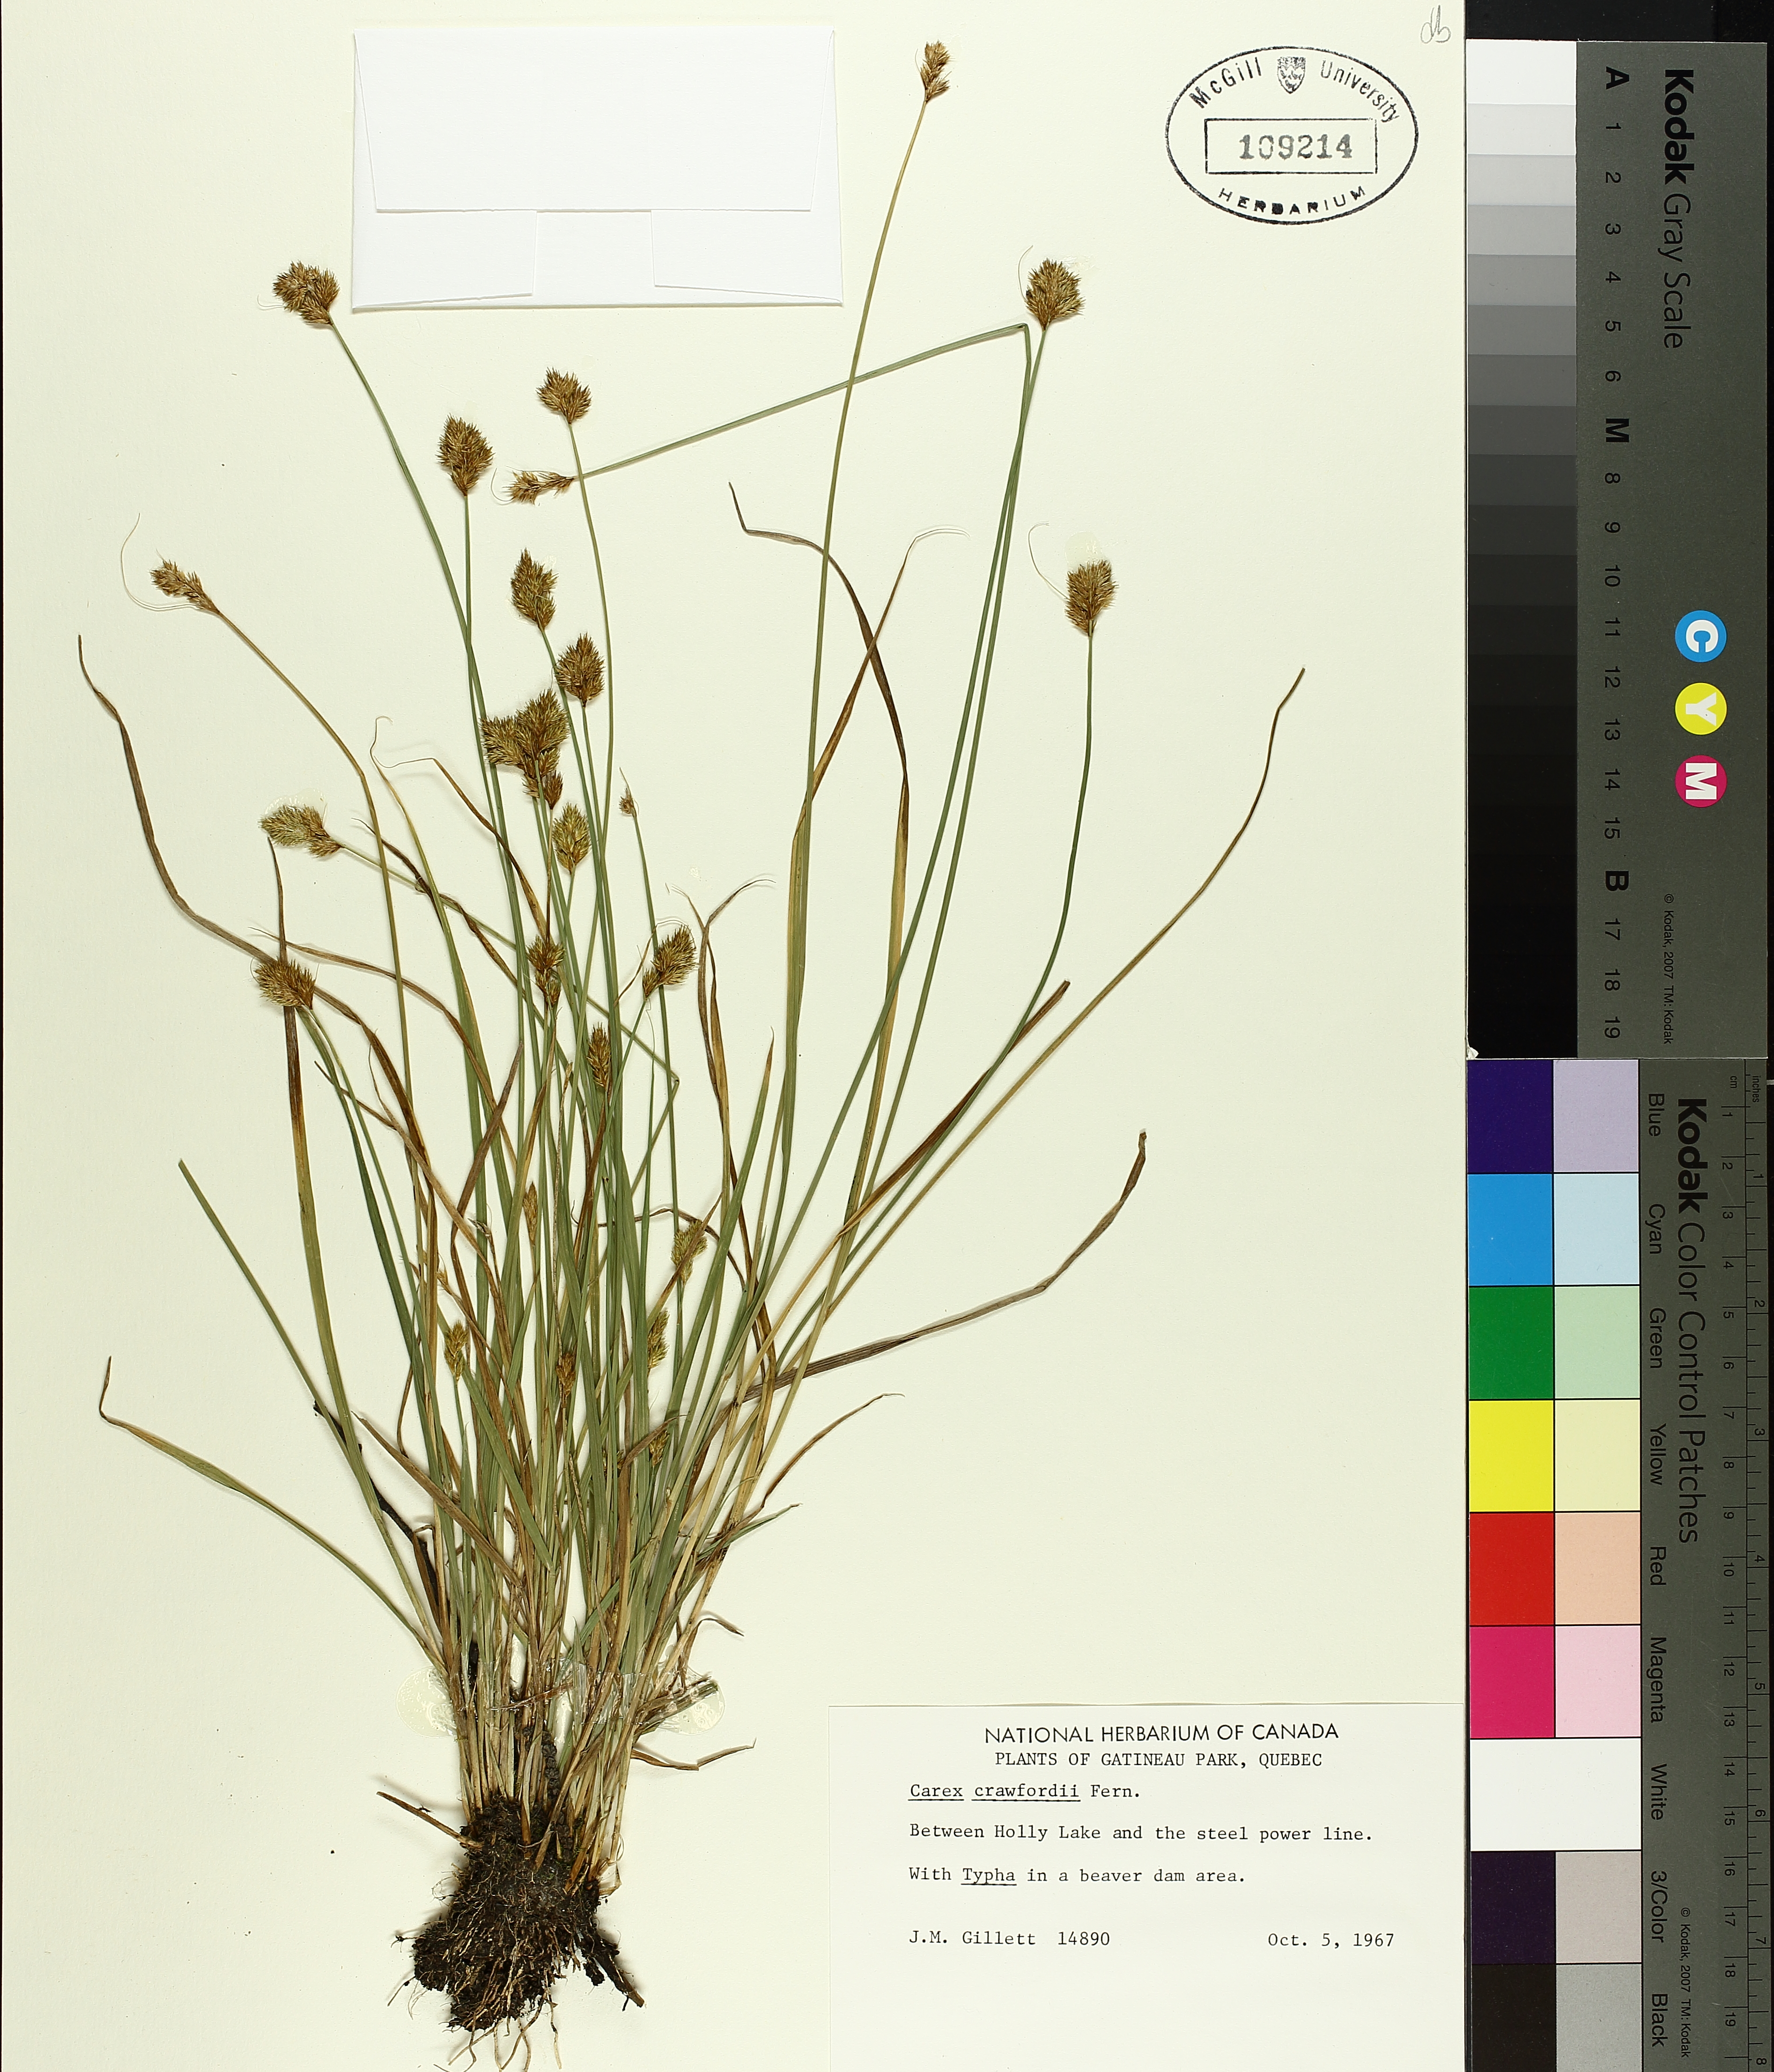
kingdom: Plantae
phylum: Tracheophyta
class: Liliopsida
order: Poales
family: Cyperaceae
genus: Carex
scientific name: Carex crawfordii
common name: Crawford's sedge
